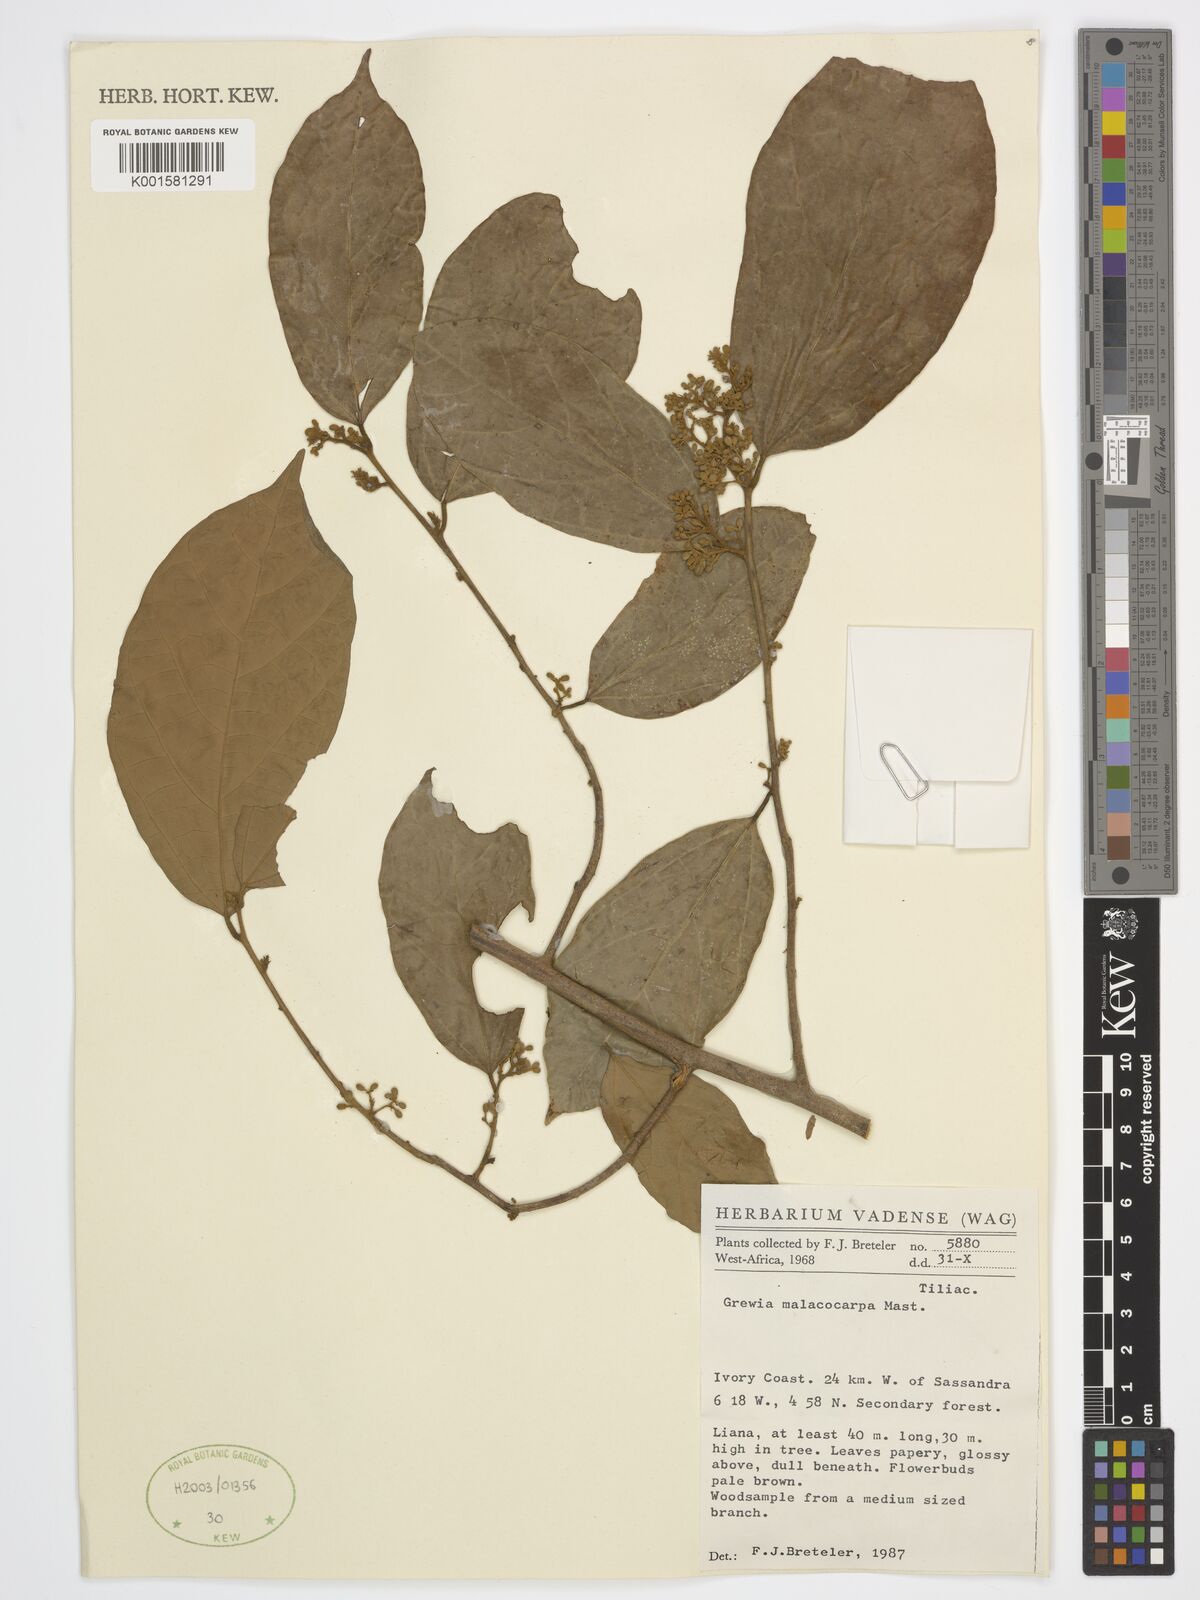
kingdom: Plantae
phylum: Tracheophyta
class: Magnoliopsida
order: Malvales
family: Malvaceae
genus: Microcos
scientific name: Microcos malacocarpa
